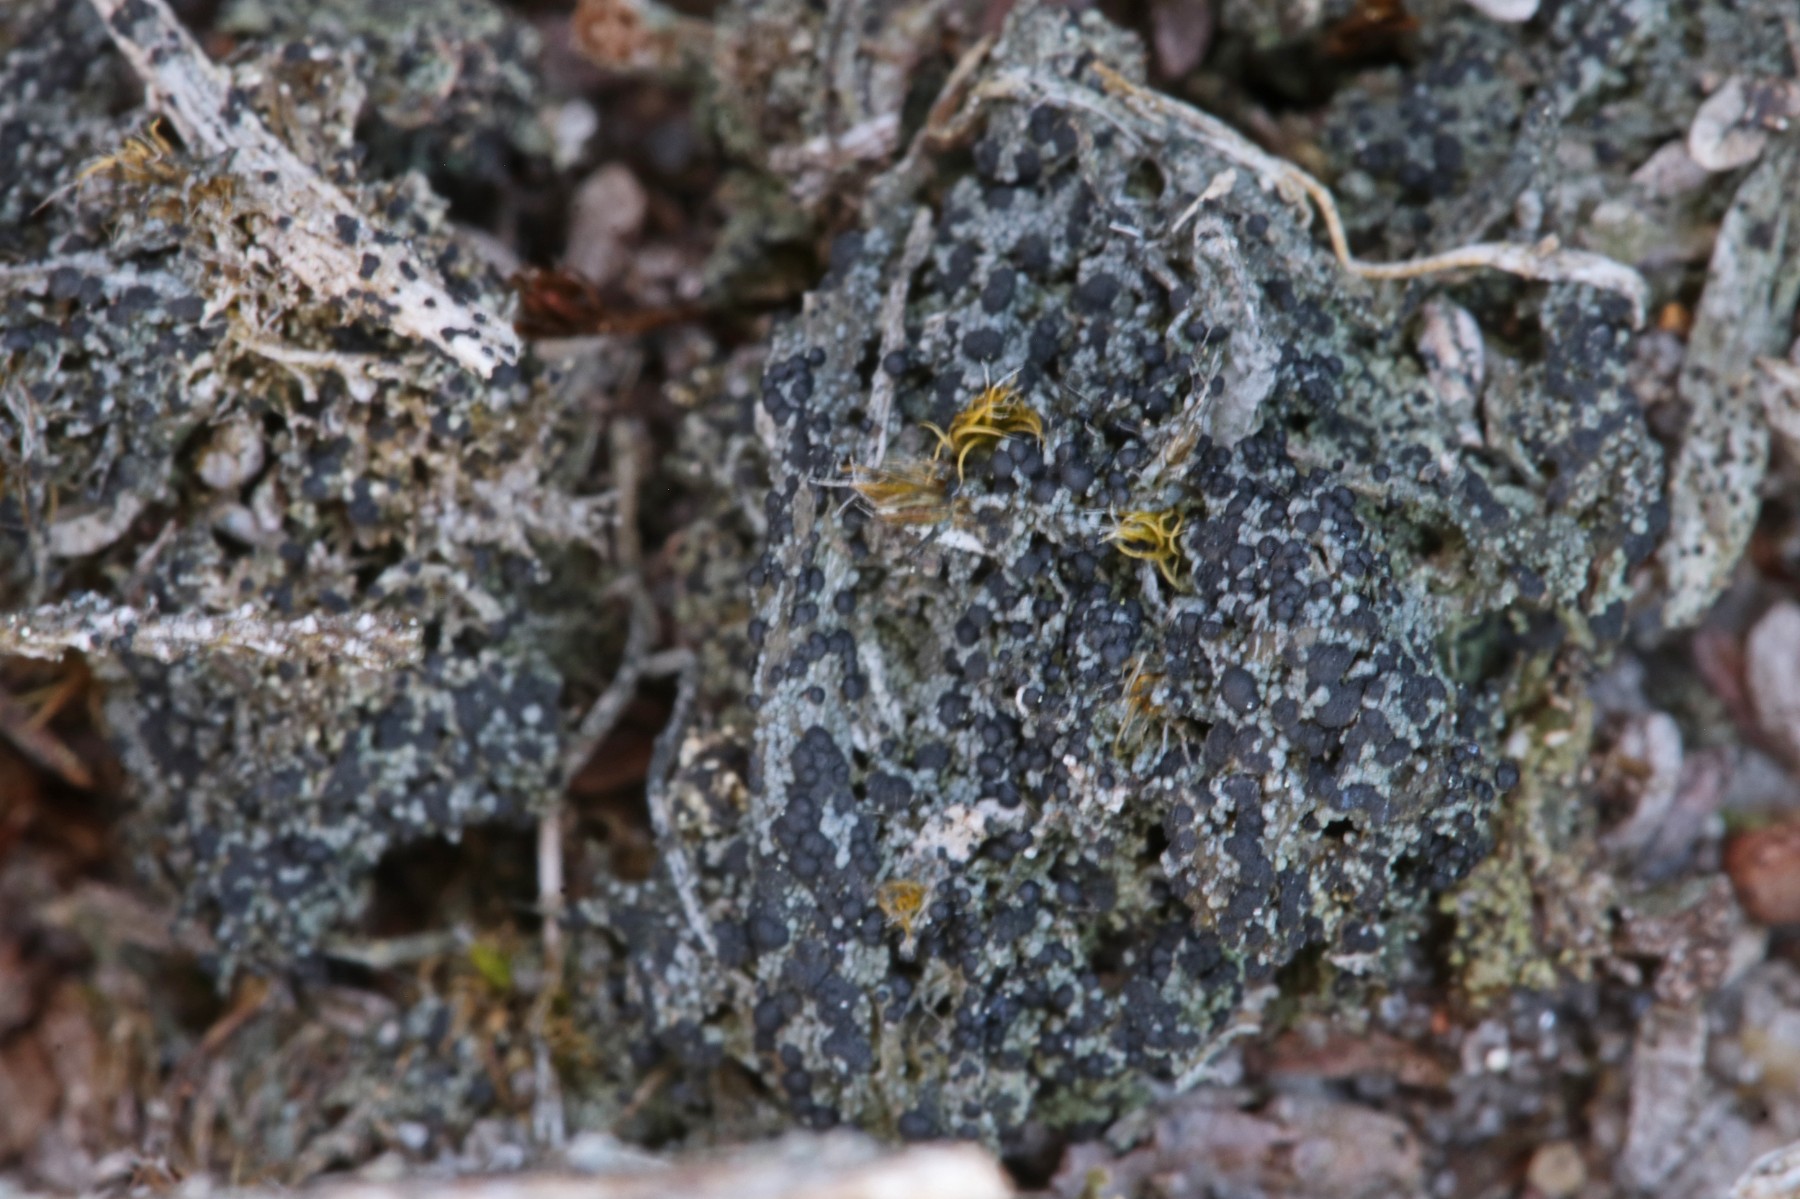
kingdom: Fungi
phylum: Ascomycota
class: Lecanoromycetes
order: Lecanorales
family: Byssolomataceae
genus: Micarea
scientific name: Micarea lignaria
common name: tørve-knaplav
